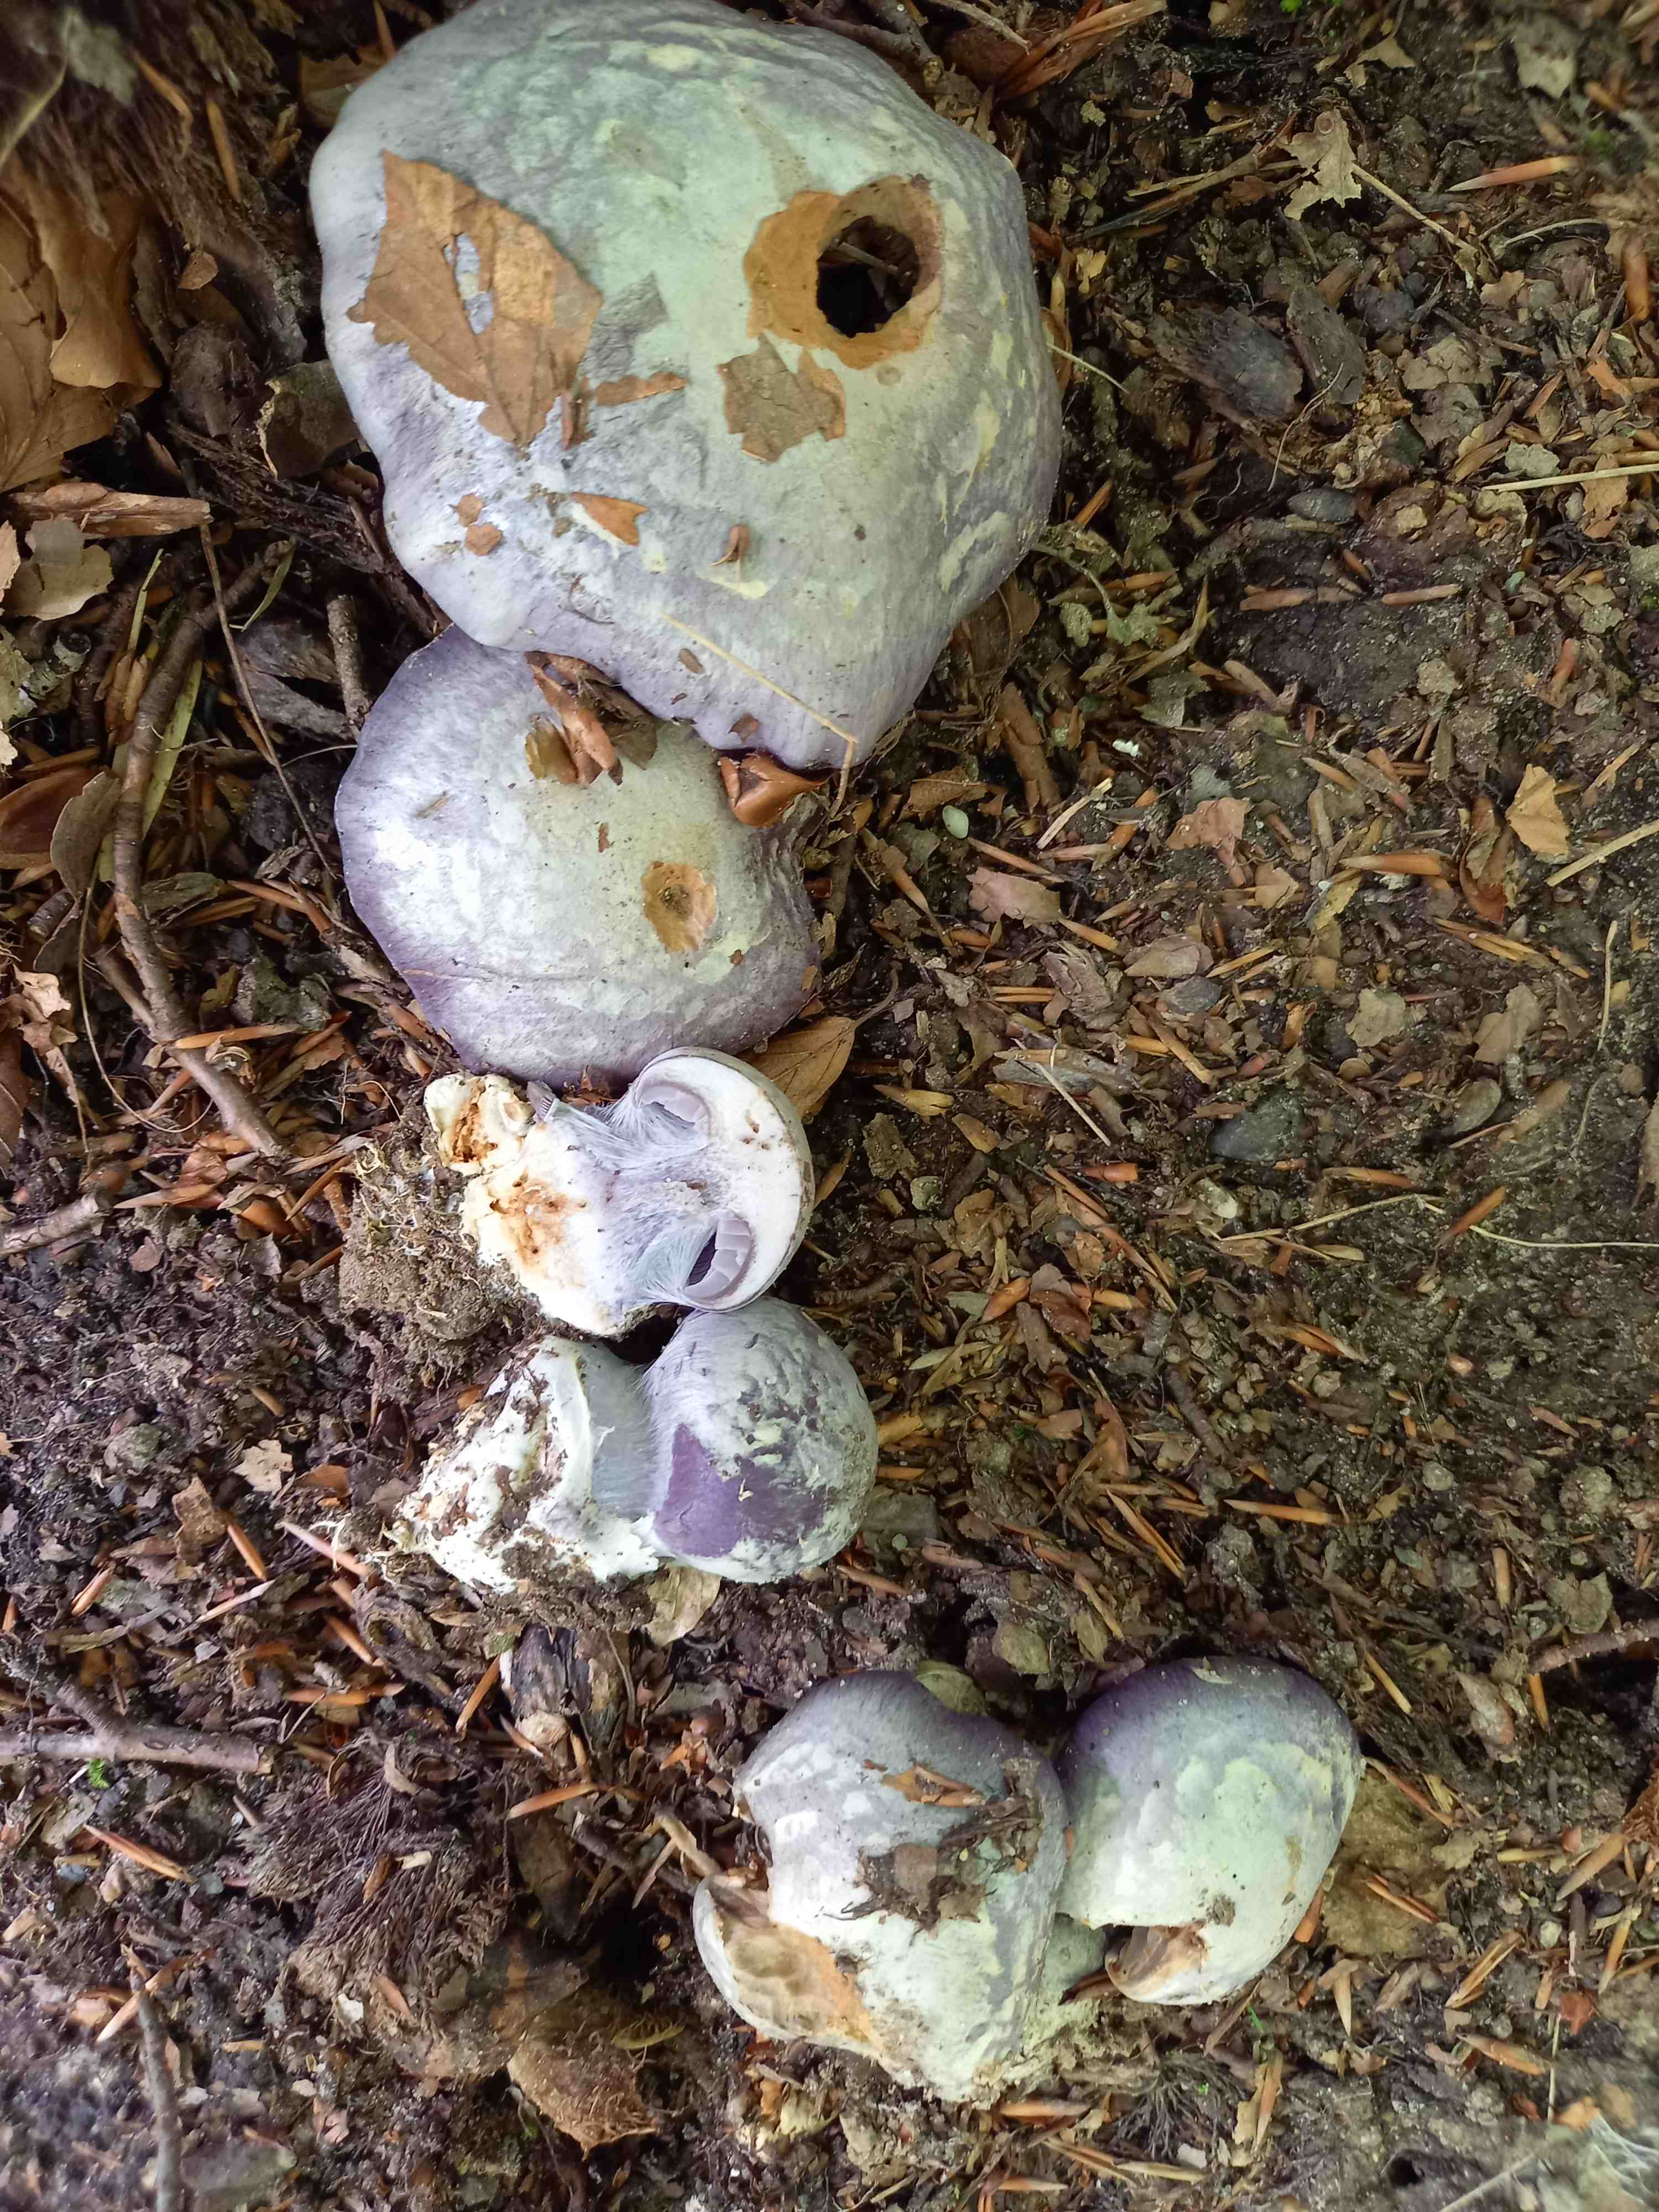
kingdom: Fungi
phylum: Basidiomycota
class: Agaricomycetes
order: Agaricales
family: Cortinariaceae
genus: Cortinarius
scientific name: Cortinarius caerulescens
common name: blåkødet slørhat
